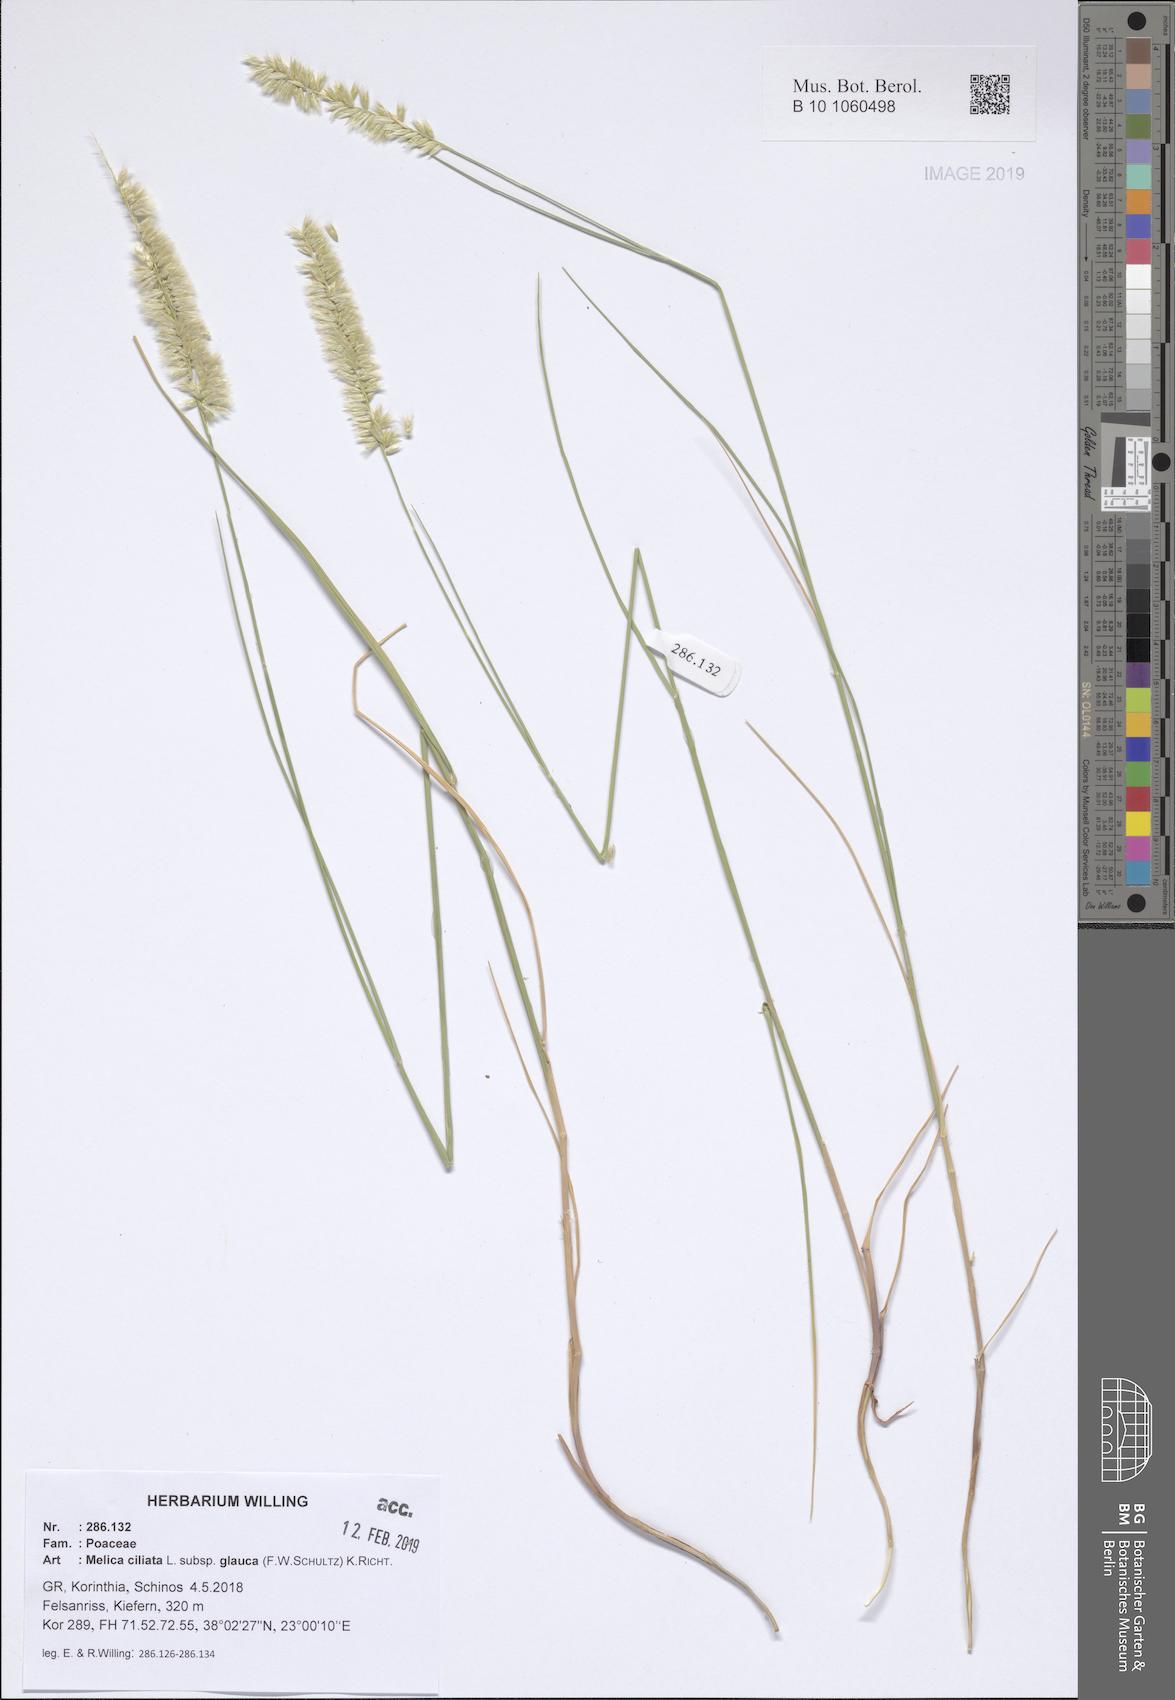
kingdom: Plantae
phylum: Tracheophyta
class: Liliopsida
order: Poales
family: Poaceae
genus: Melica
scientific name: Melica ciliata
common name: Hairy melicgrass
